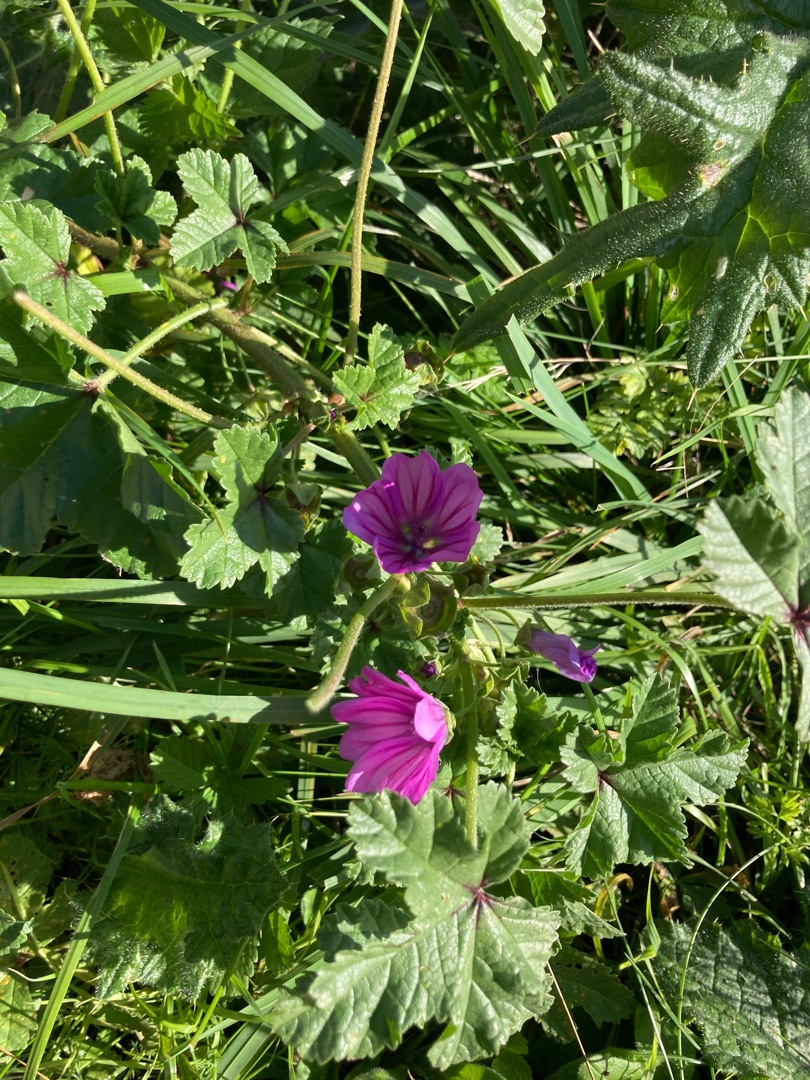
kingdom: Plantae
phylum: Tracheophyta
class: Magnoliopsida
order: Malvales
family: Malvaceae
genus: Malva
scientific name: Malva sylvestris
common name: Almindelig katost
